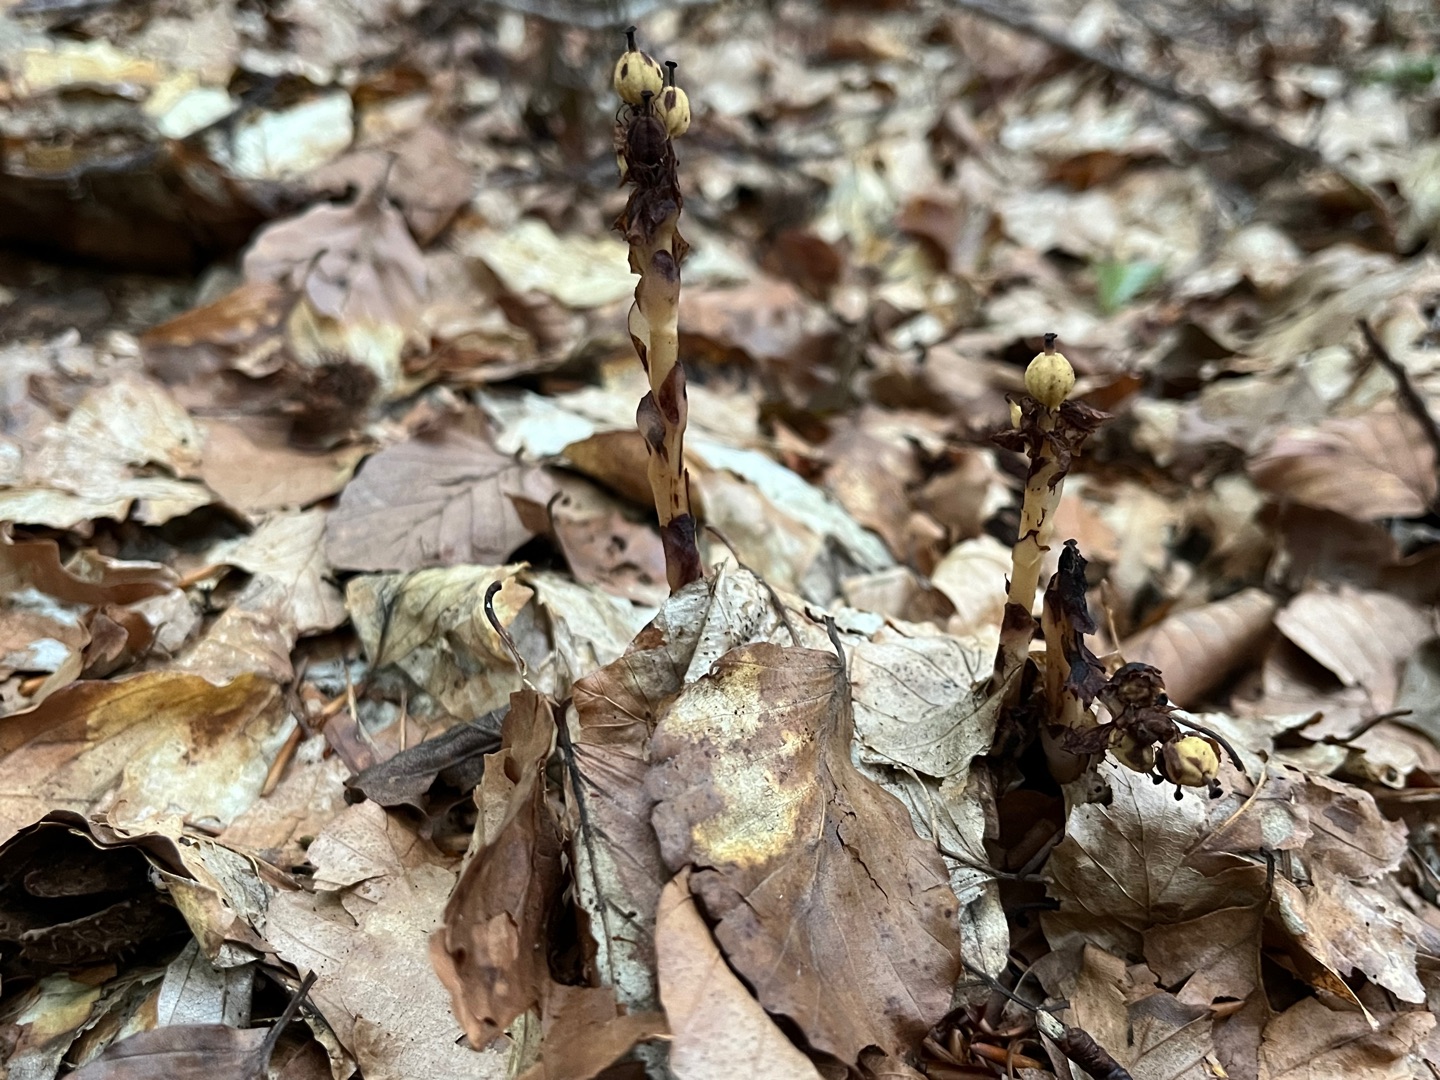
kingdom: Plantae
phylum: Tracheophyta
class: Magnoliopsida
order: Ericales
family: Ericaceae
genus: Hypopitys
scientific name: Hypopitys monotropa
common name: Snylterod
